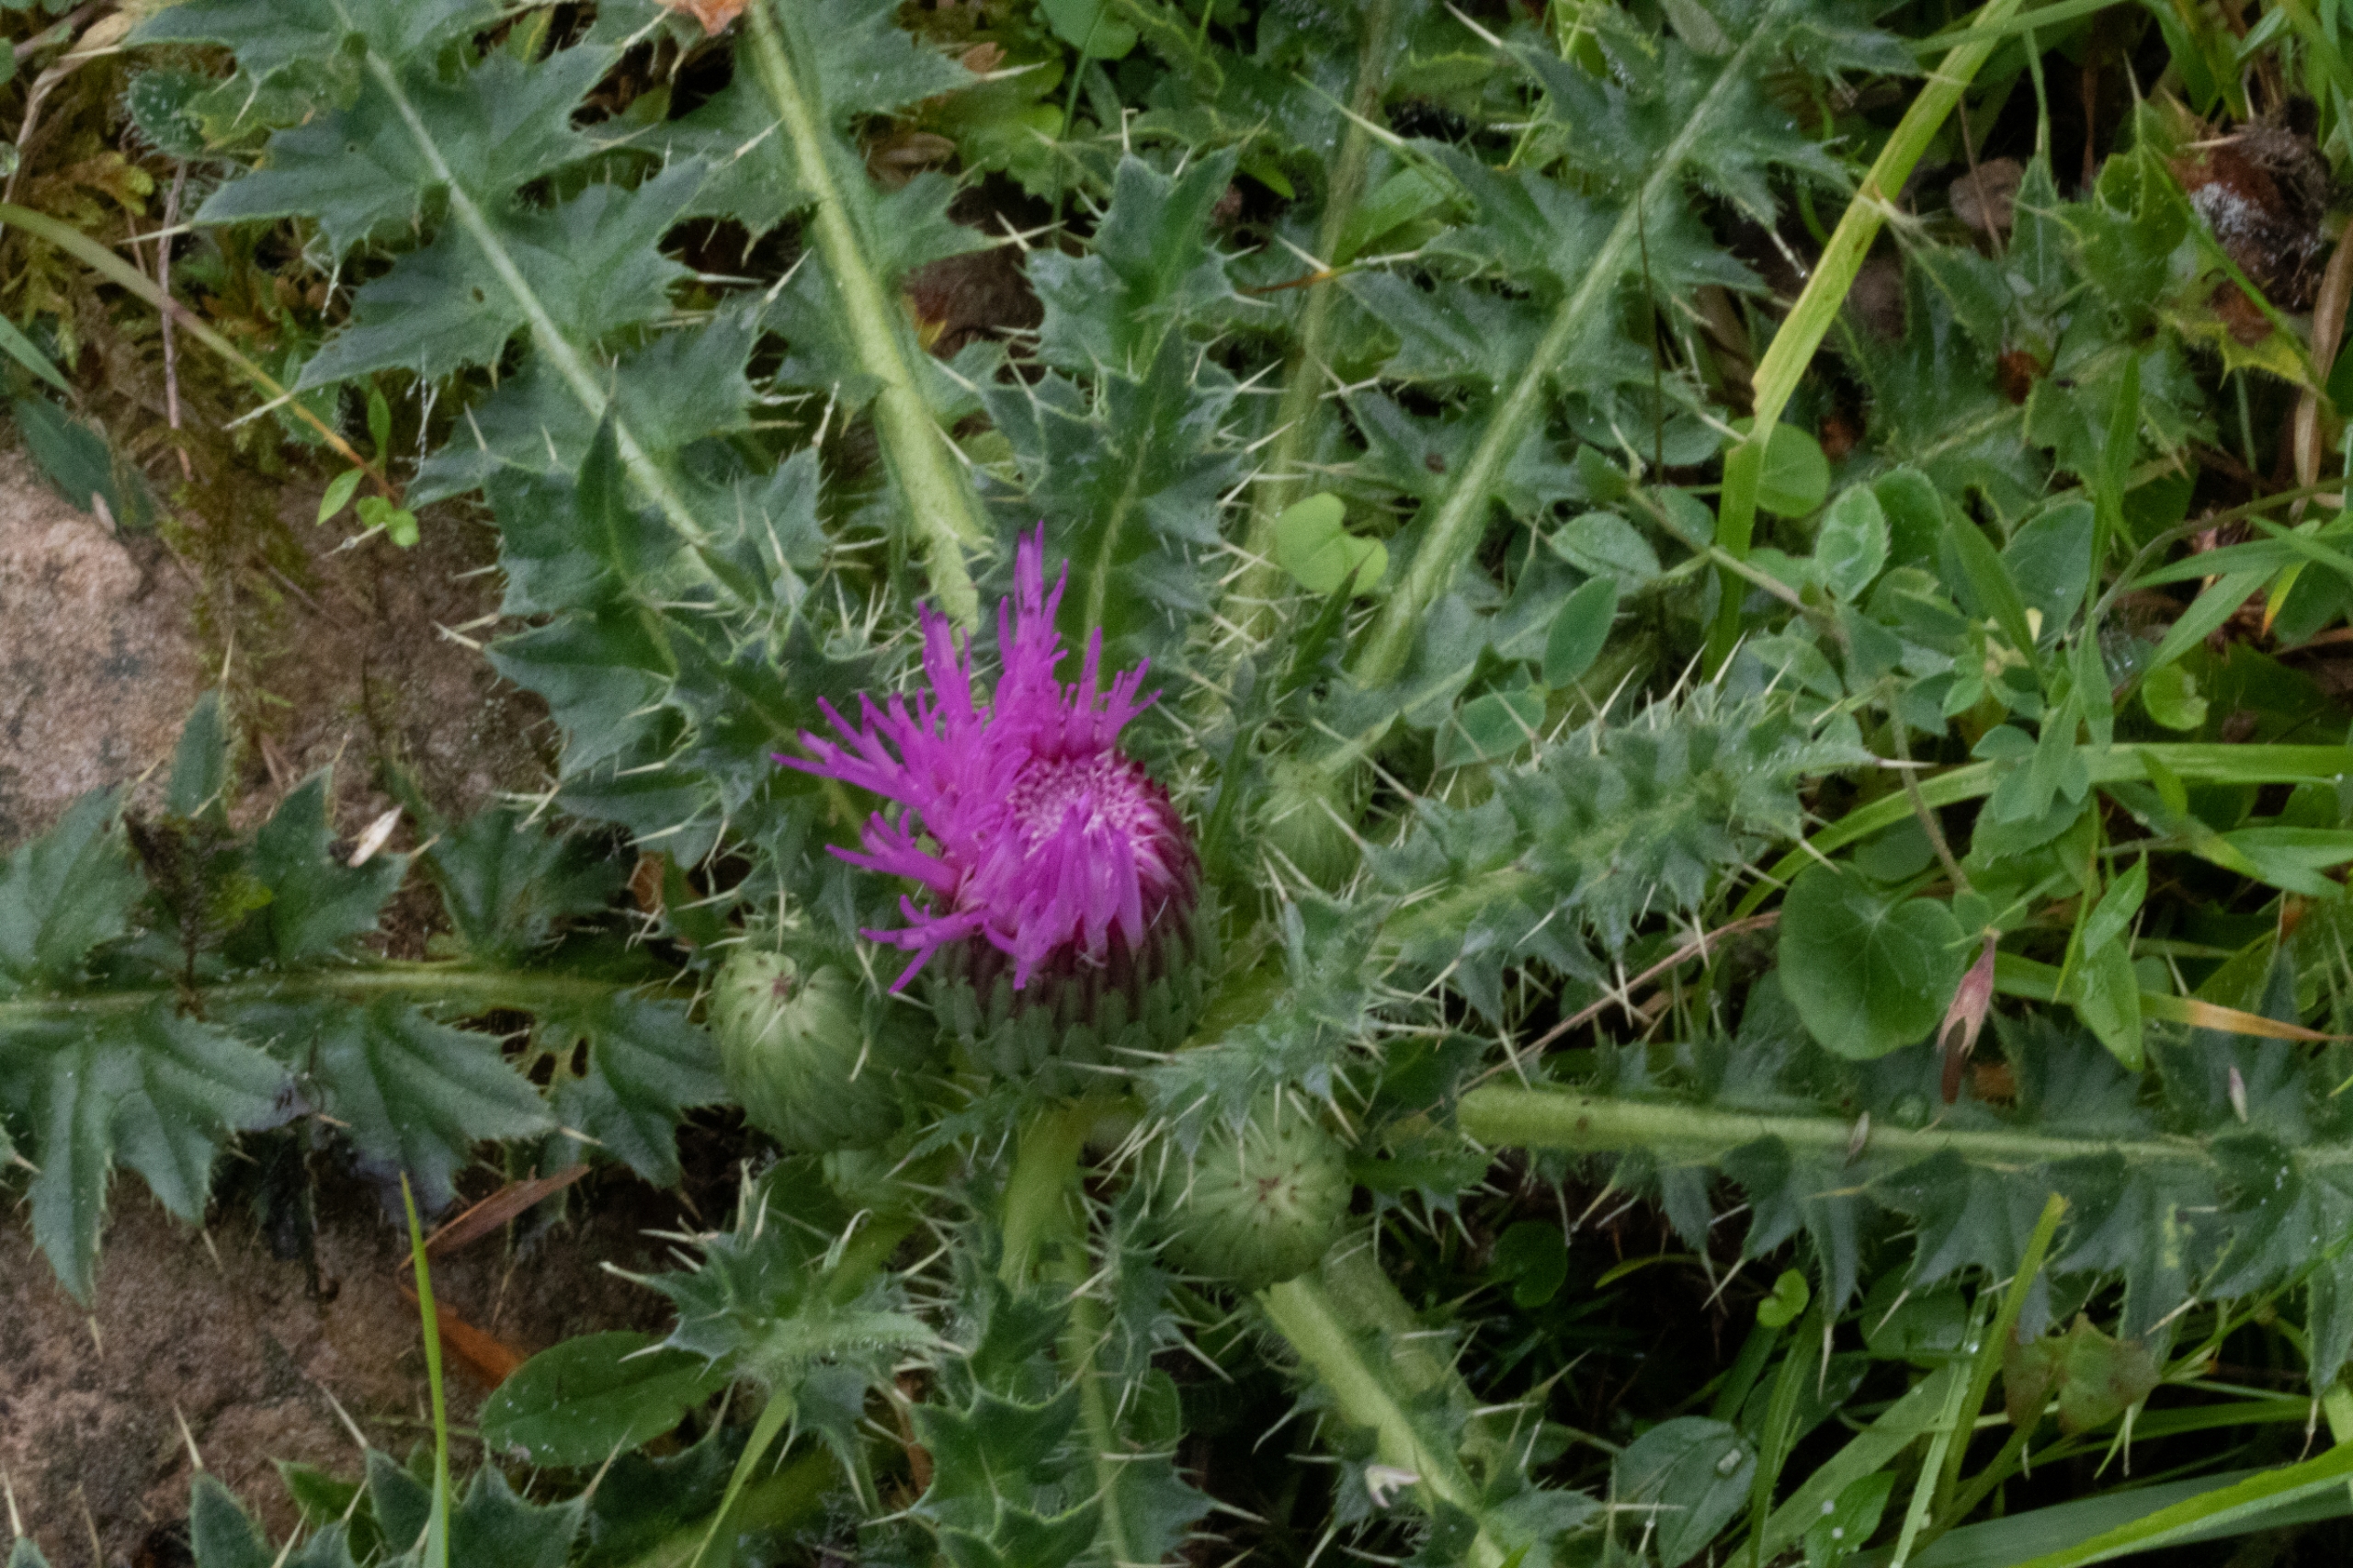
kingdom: Plantae
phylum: Tracheophyta
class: Magnoliopsida
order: Asterales
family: Asteraceae
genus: Cirsium
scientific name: Cirsium acaule
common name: Lav tidsel
